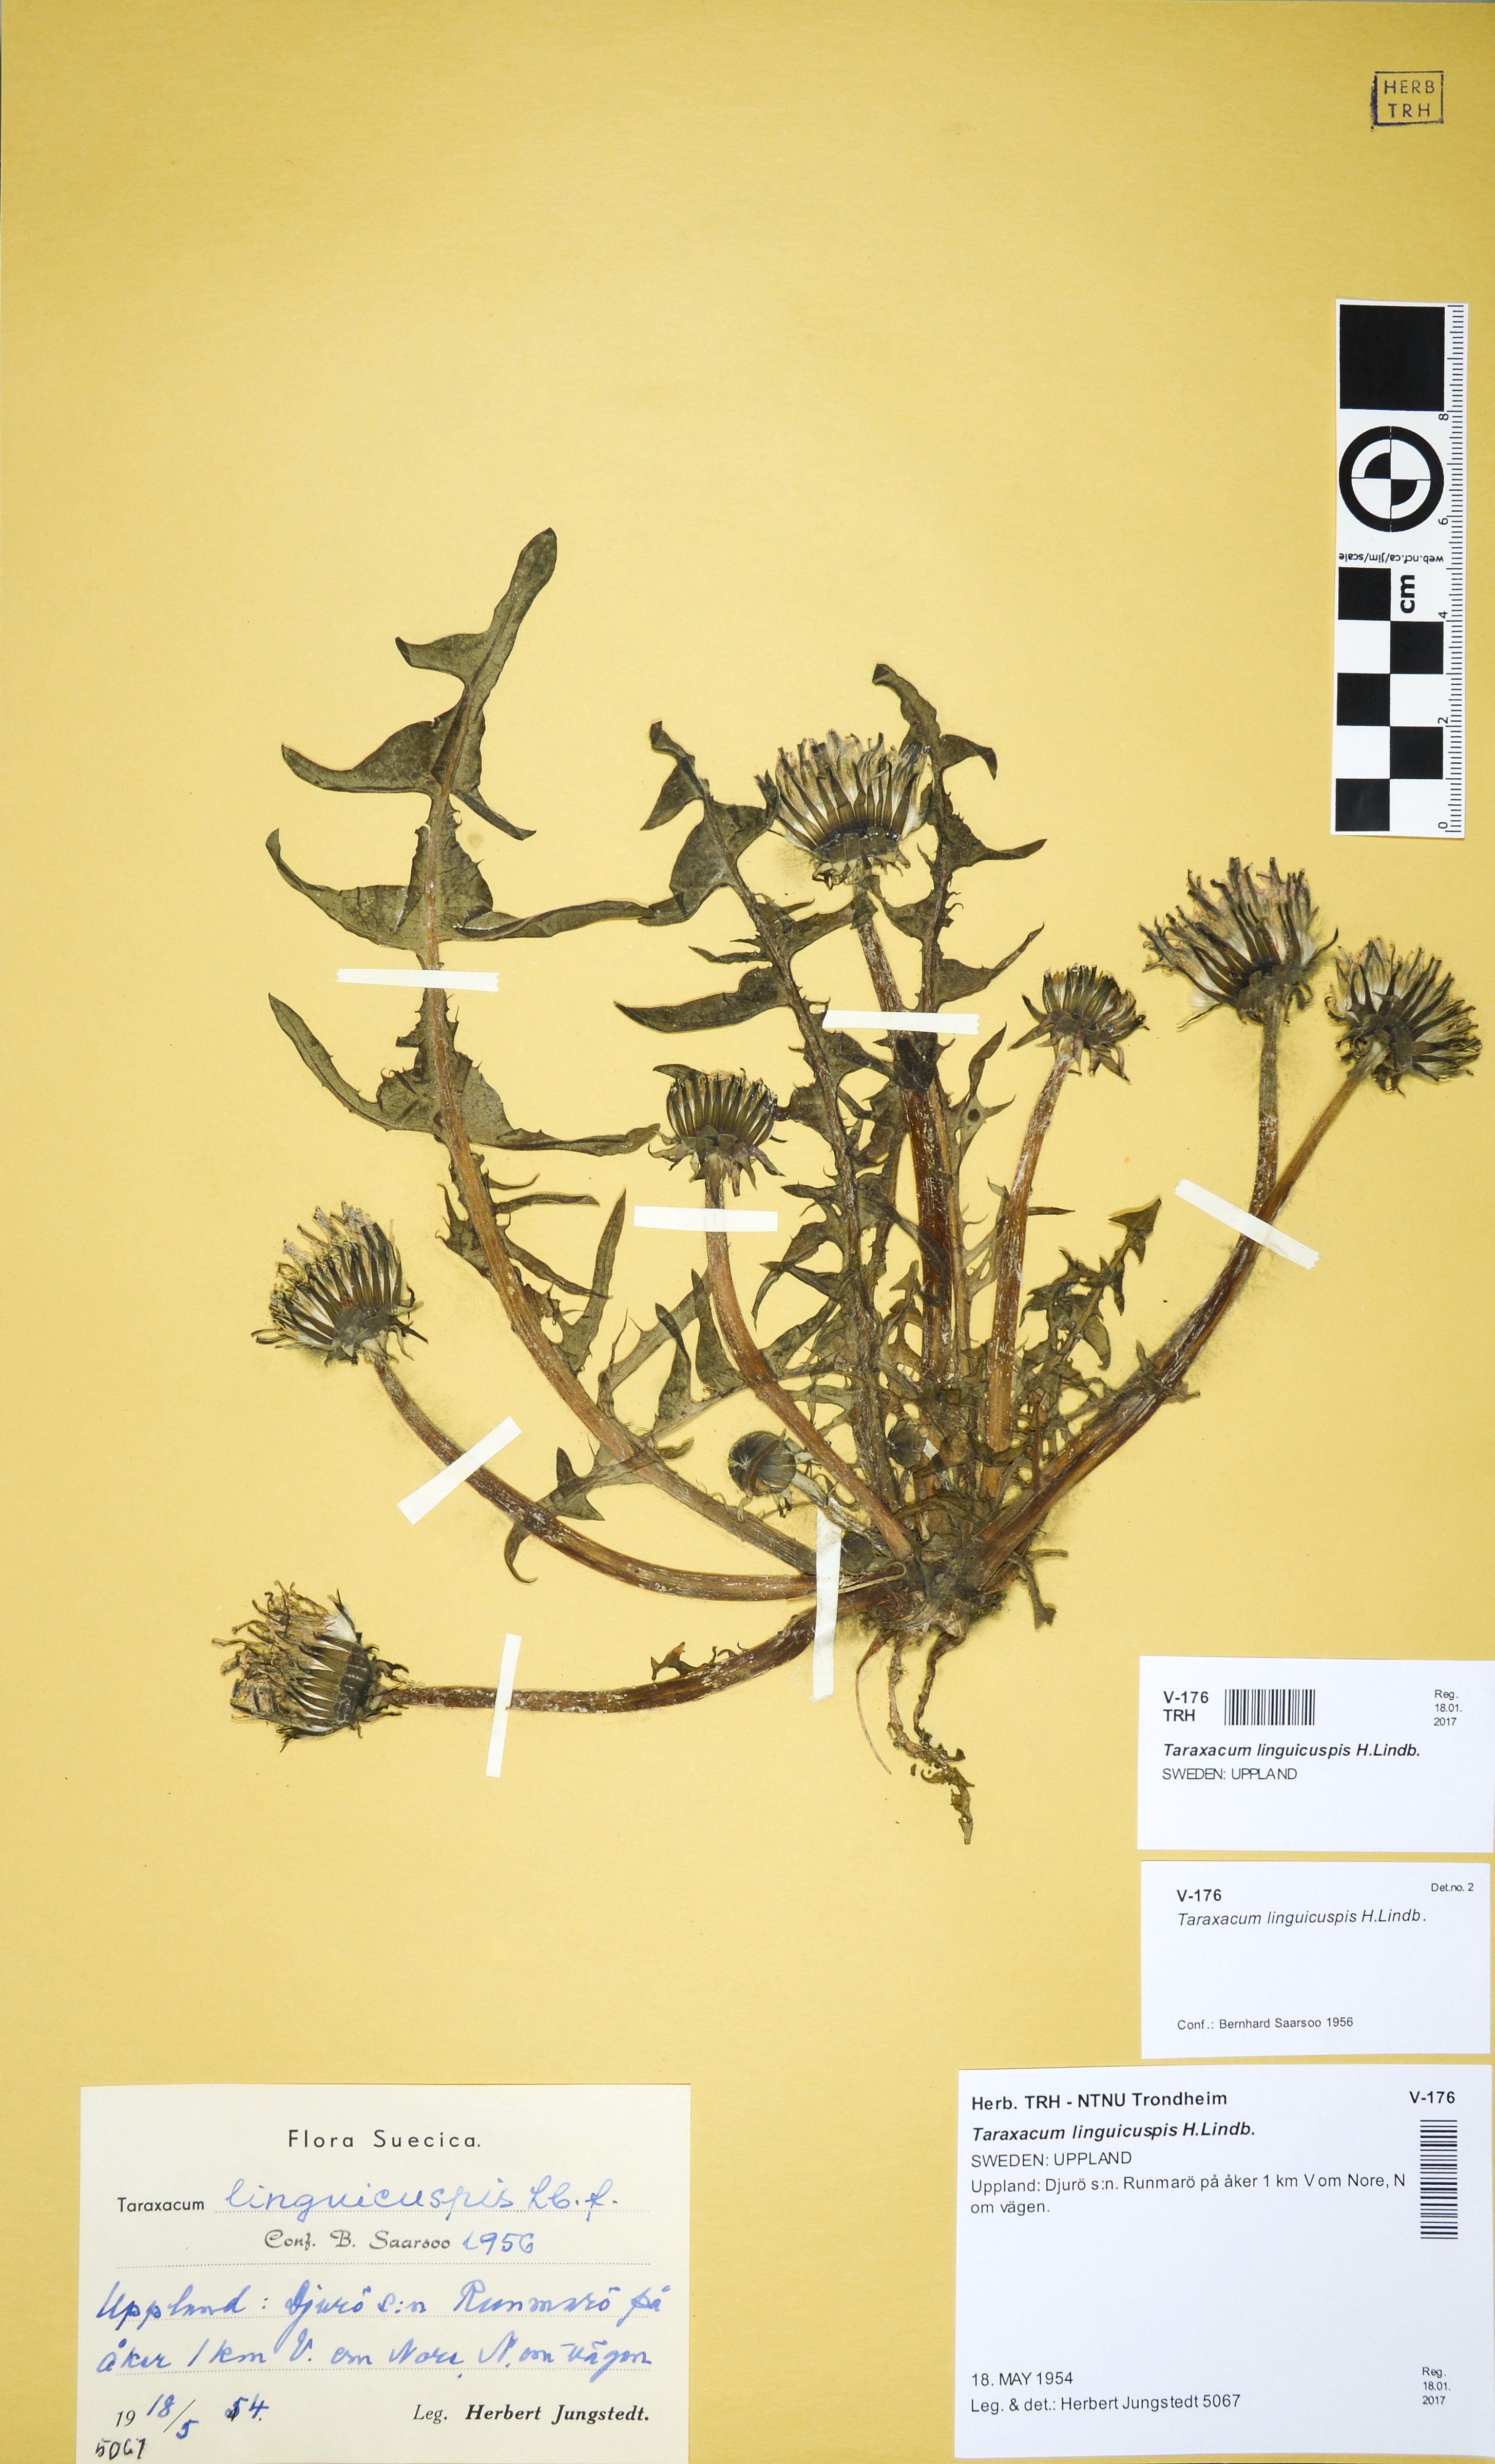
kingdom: Plantae
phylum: Tracheophyta
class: Magnoliopsida
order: Asterales
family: Asteraceae
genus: Taraxacum
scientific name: Taraxacum linguicuspis
